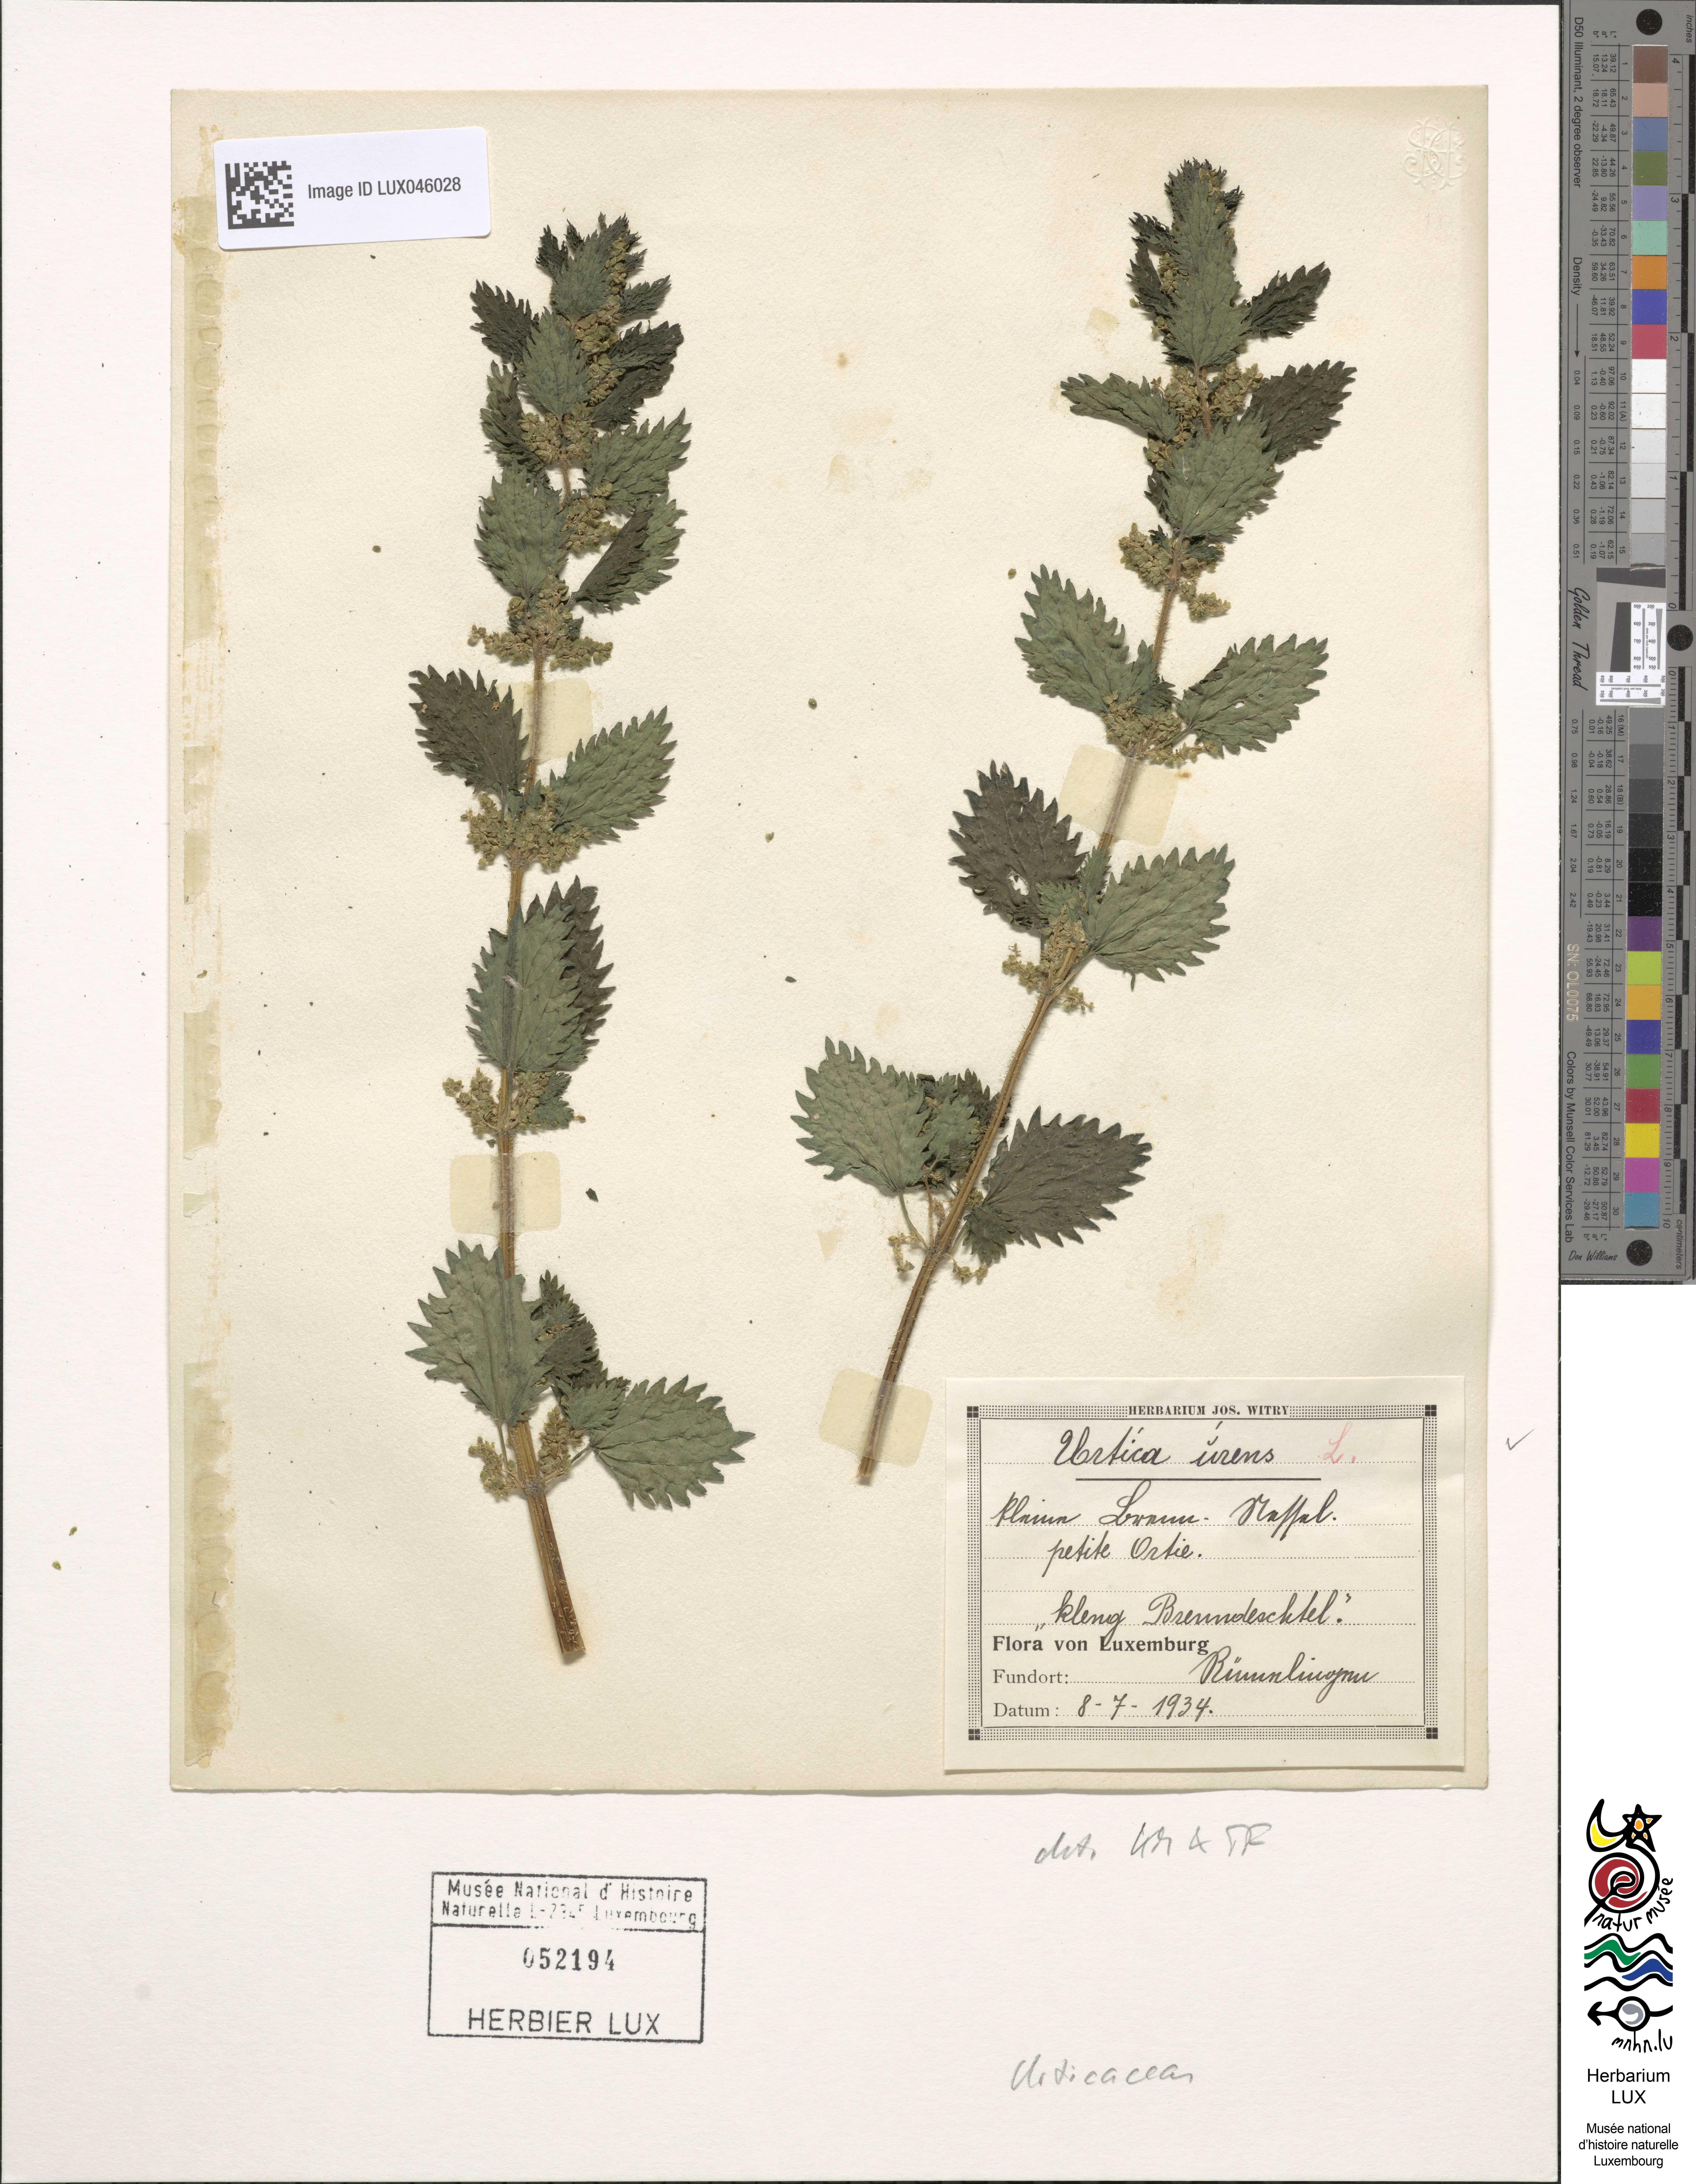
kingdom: Plantae
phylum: Tracheophyta
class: Magnoliopsida
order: Rosales
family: Urticaceae
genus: Urtica
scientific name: Urtica urens
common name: Dwarf nettle
